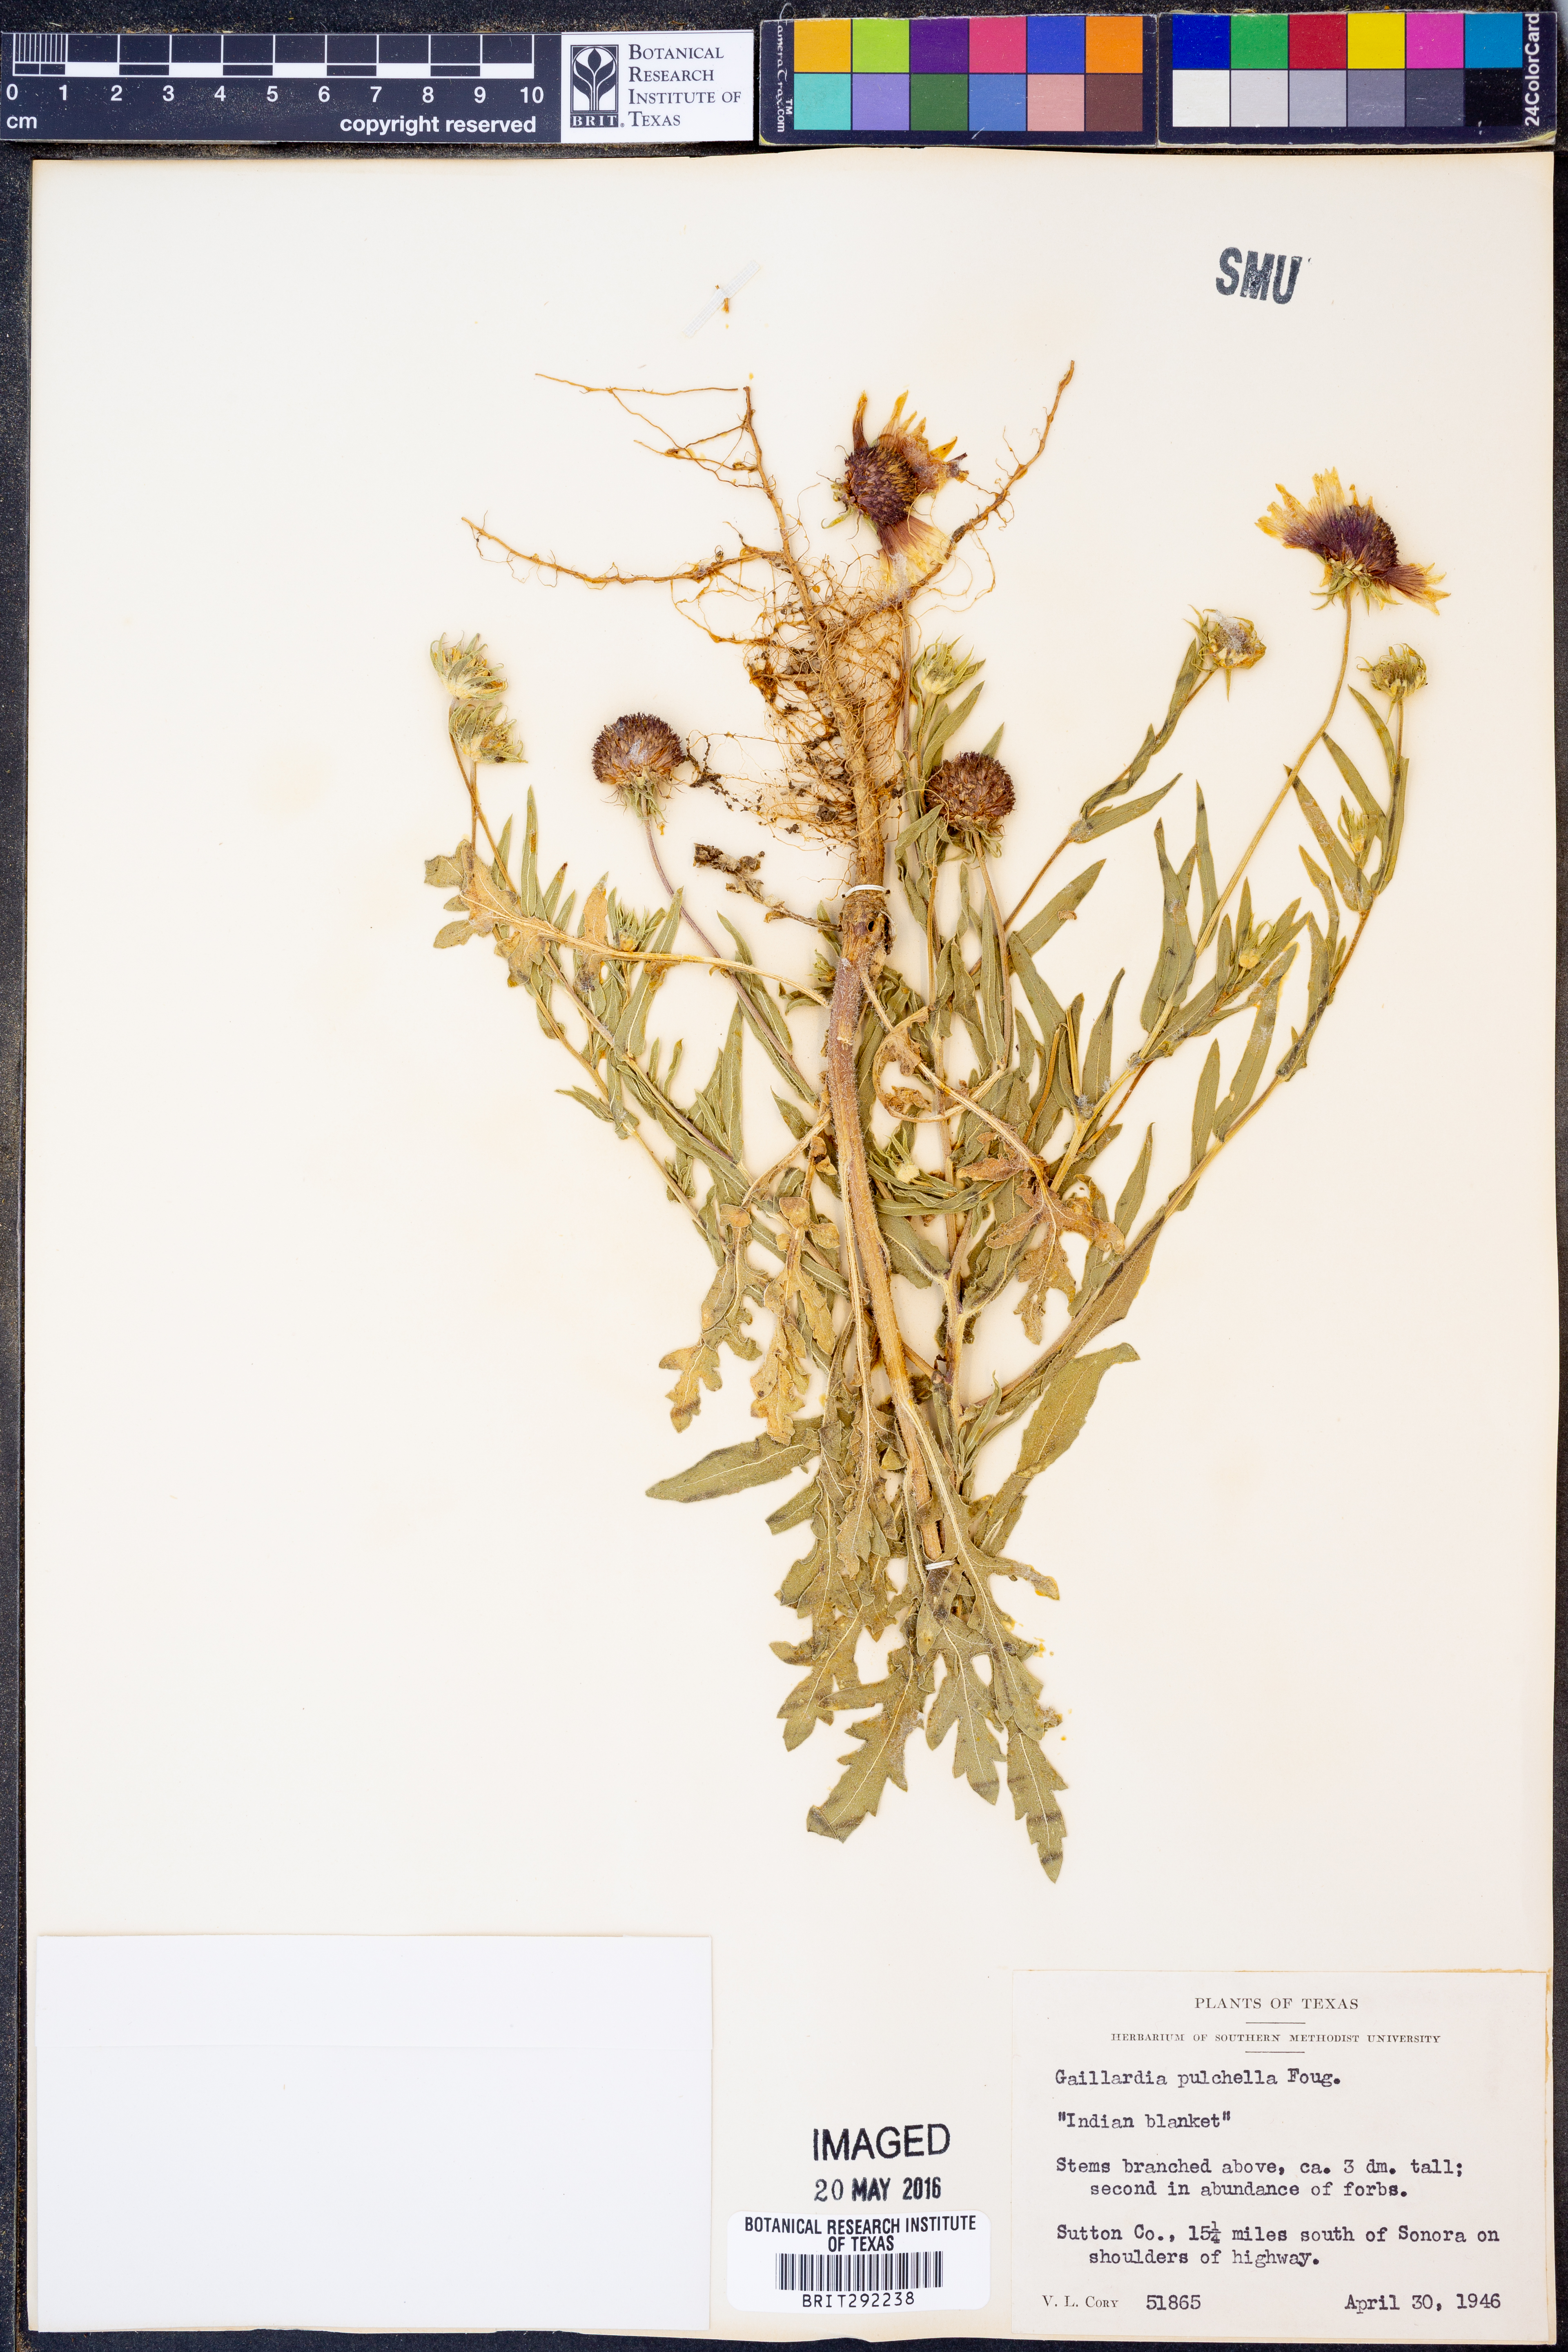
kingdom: Plantae
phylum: Tracheophyta
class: Magnoliopsida
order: Asterales
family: Asteraceae
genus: Gaillardia
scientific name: Gaillardia pulchella
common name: Firewheel
